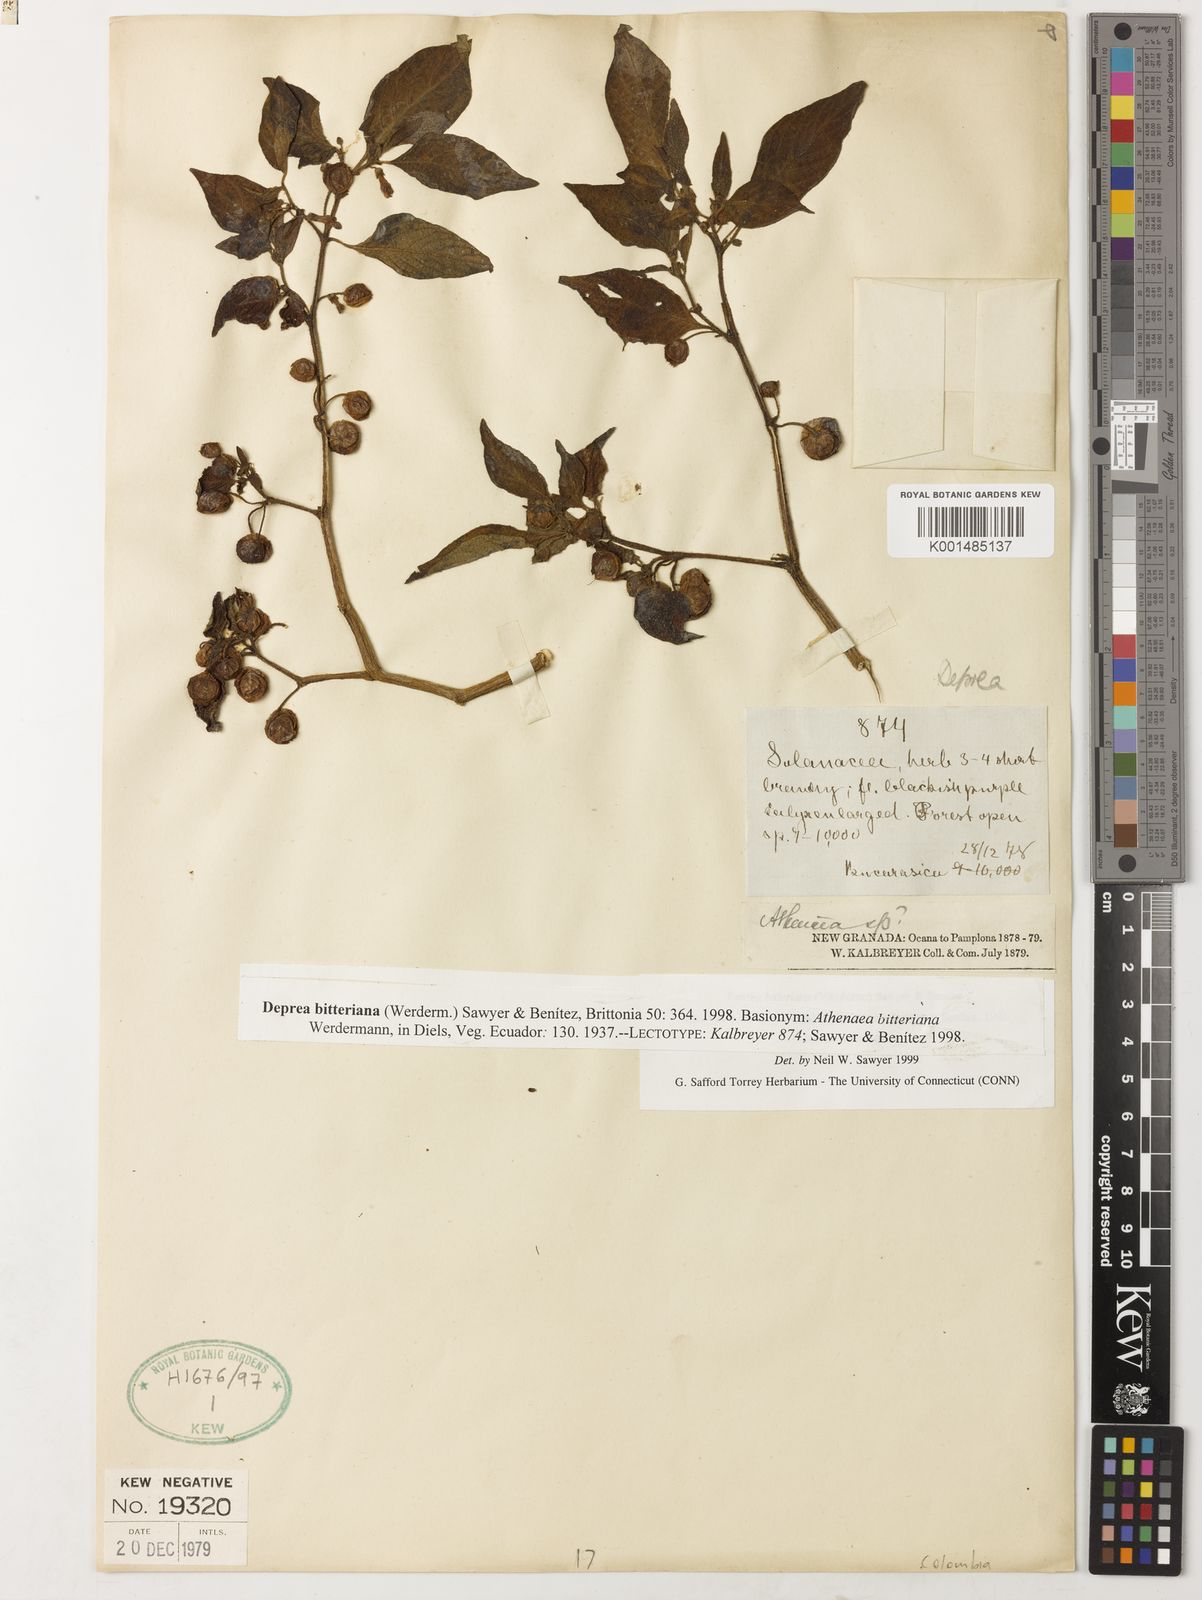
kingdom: Plantae
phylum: Tracheophyta
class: Magnoliopsida
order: Solanales
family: Solanaceae
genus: Deprea
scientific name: Deprea bitteriana
